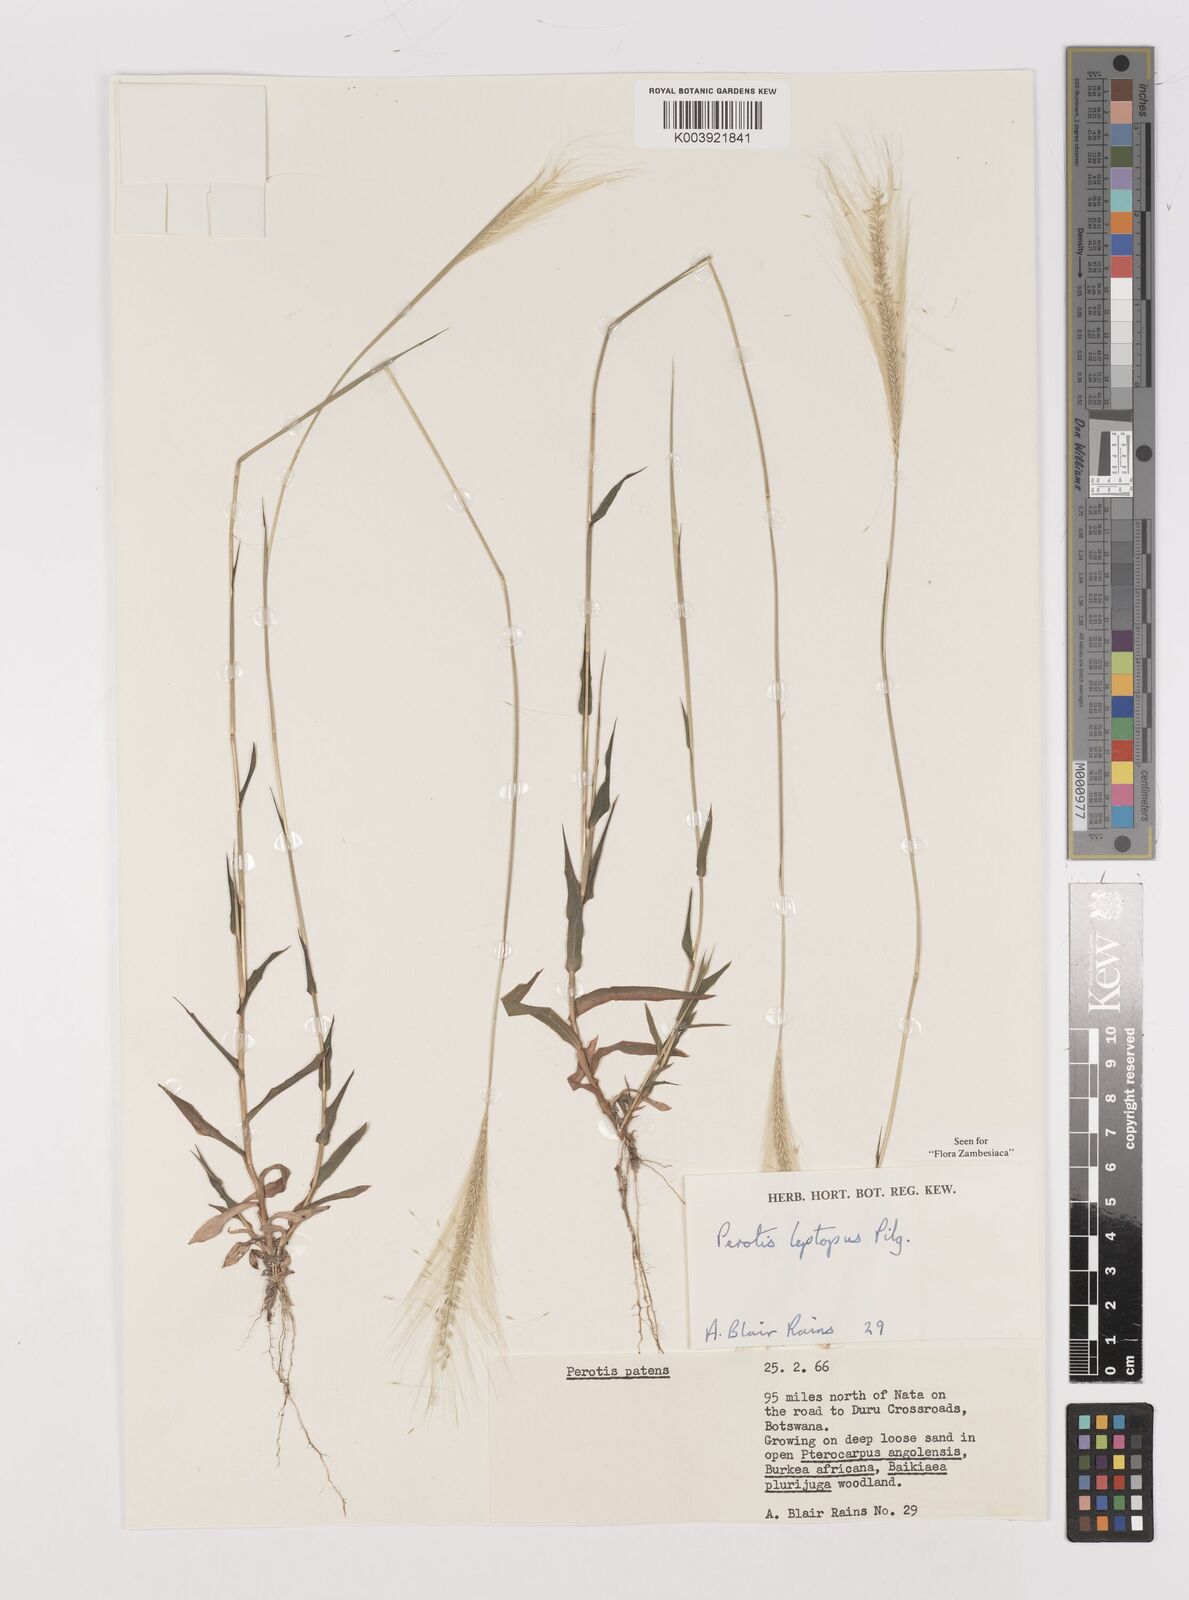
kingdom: Plantae
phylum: Tracheophyta
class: Liliopsida
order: Poales
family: Poaceae
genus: Perotis
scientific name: Perotis leptopus
